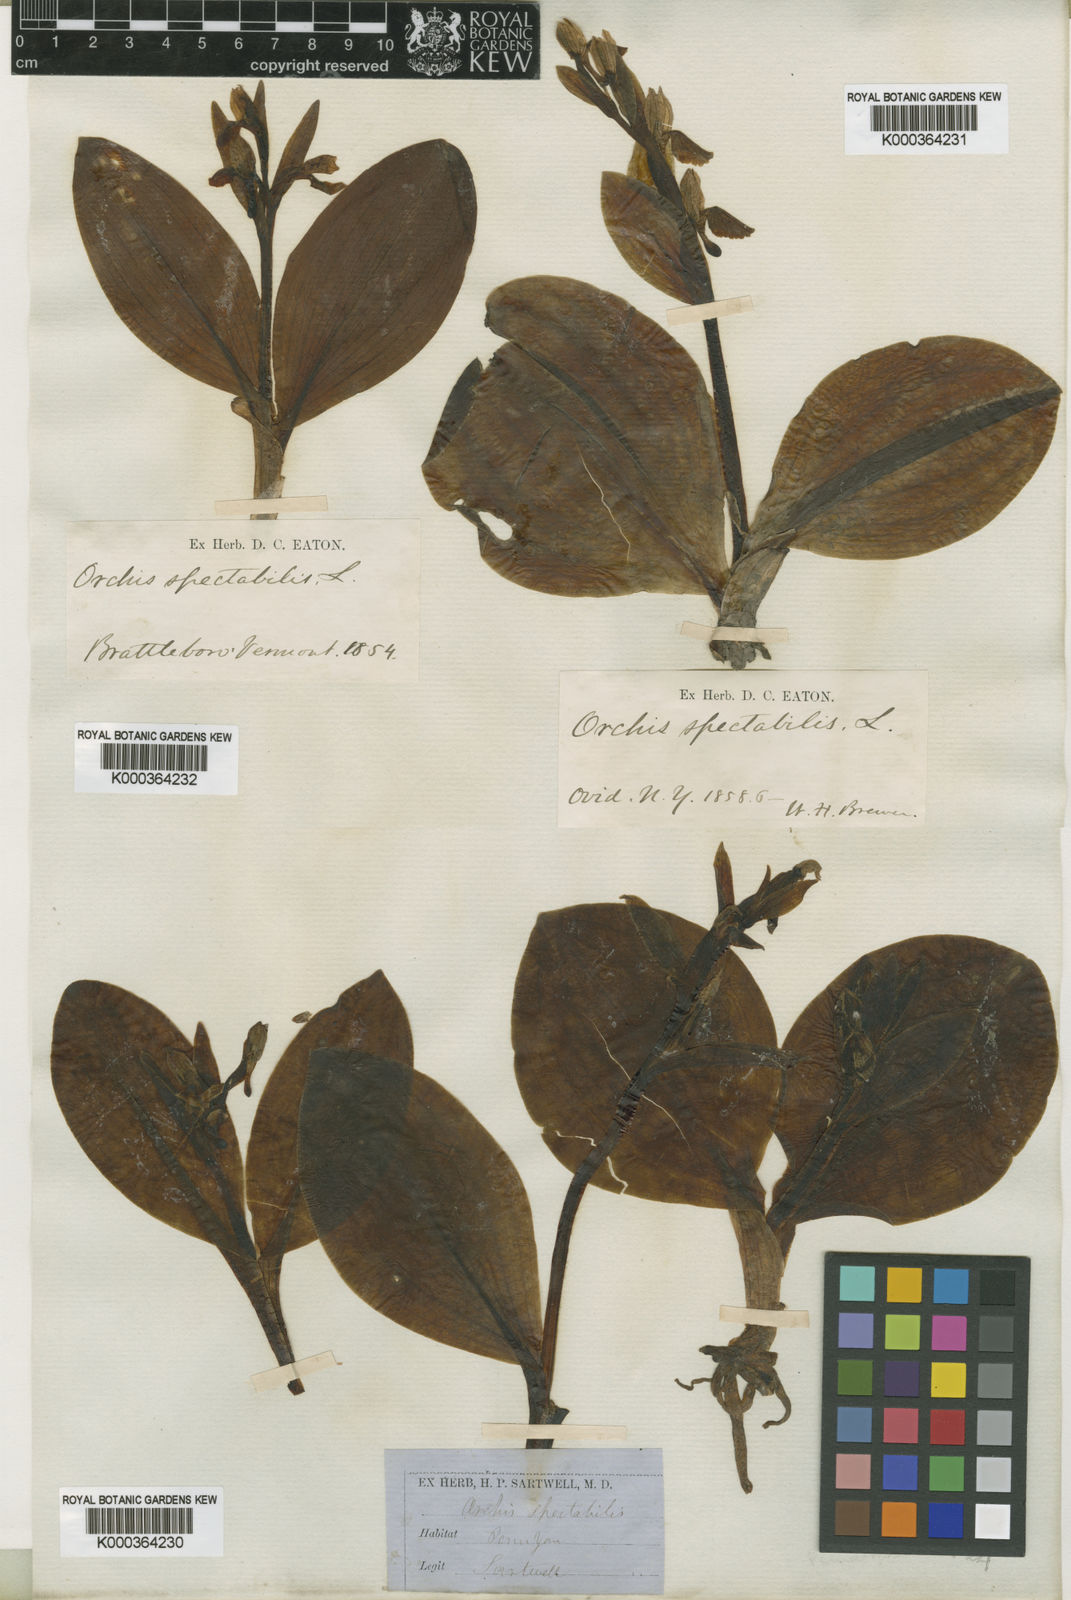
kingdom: Plantae
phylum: Tracheophyta
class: Liliopsida
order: Asparagales
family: Orchidaceae
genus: Galearis
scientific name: Galearis spectabilis
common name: Purple-hooded orchis
